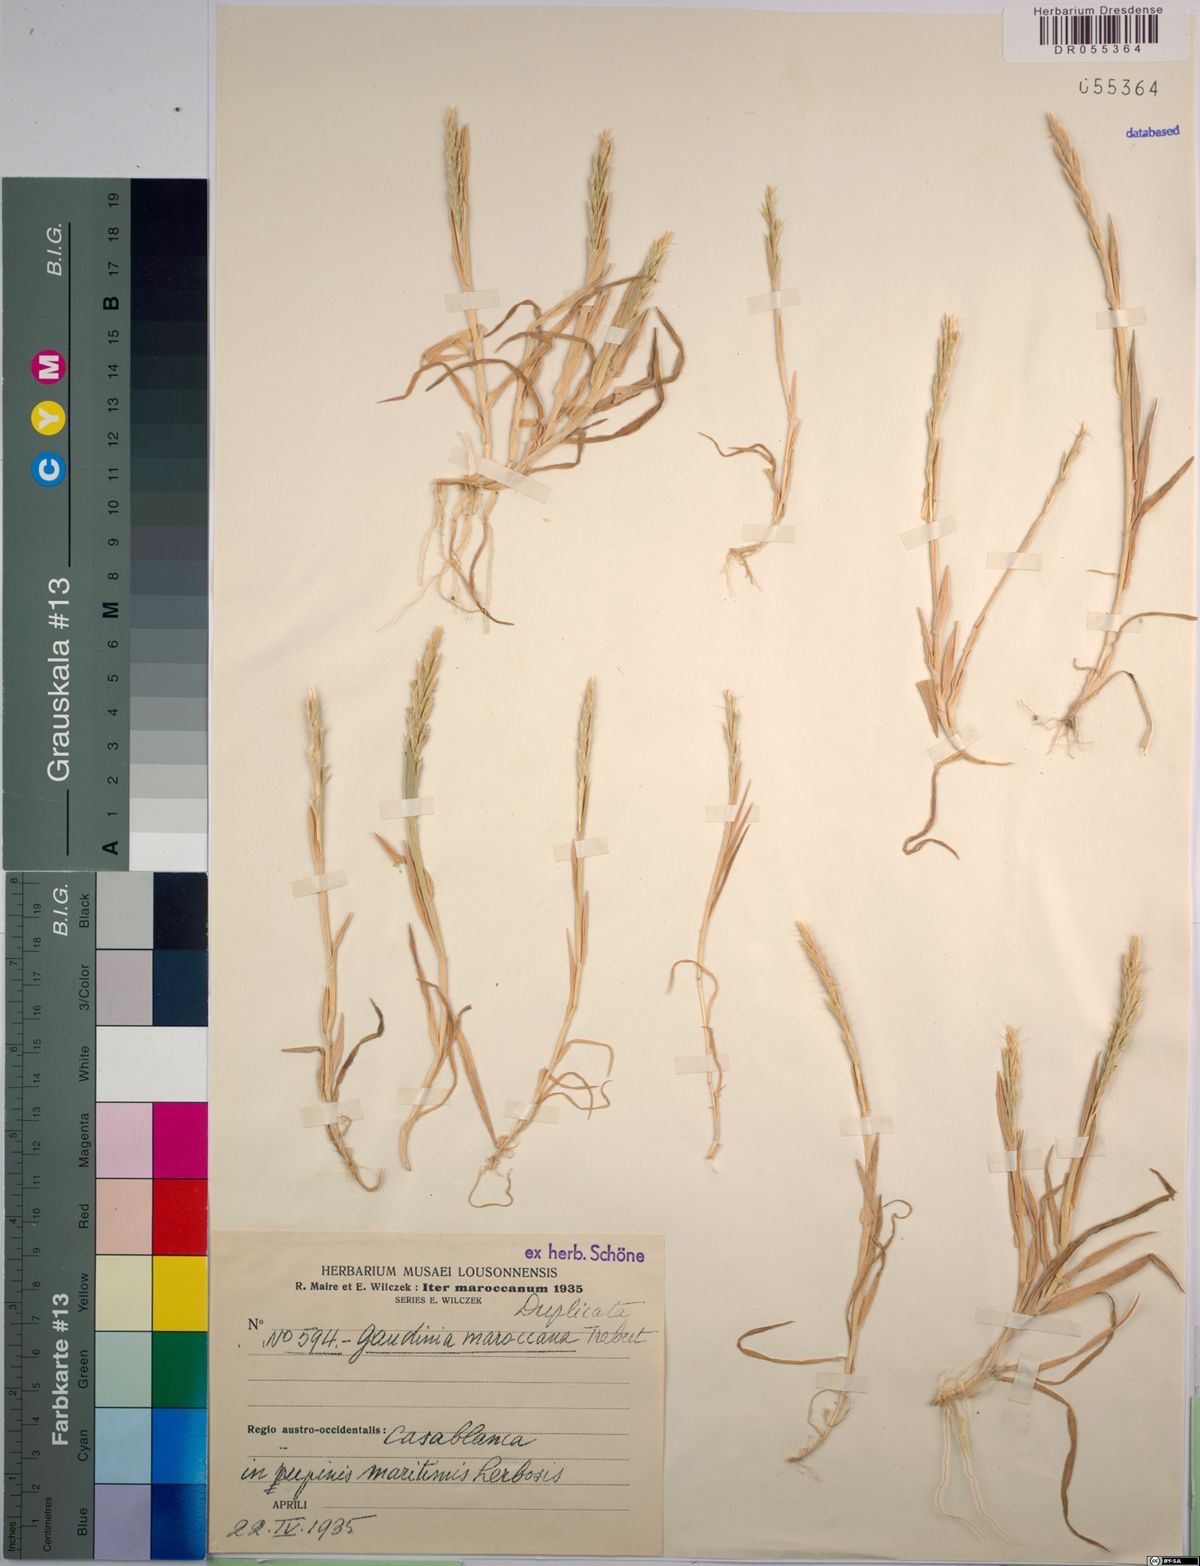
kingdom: Plantae
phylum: Tracheophyta
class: Liliopsida
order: Poales
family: Poaceae
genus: Gaudinia
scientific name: Gaudinia maroccana
